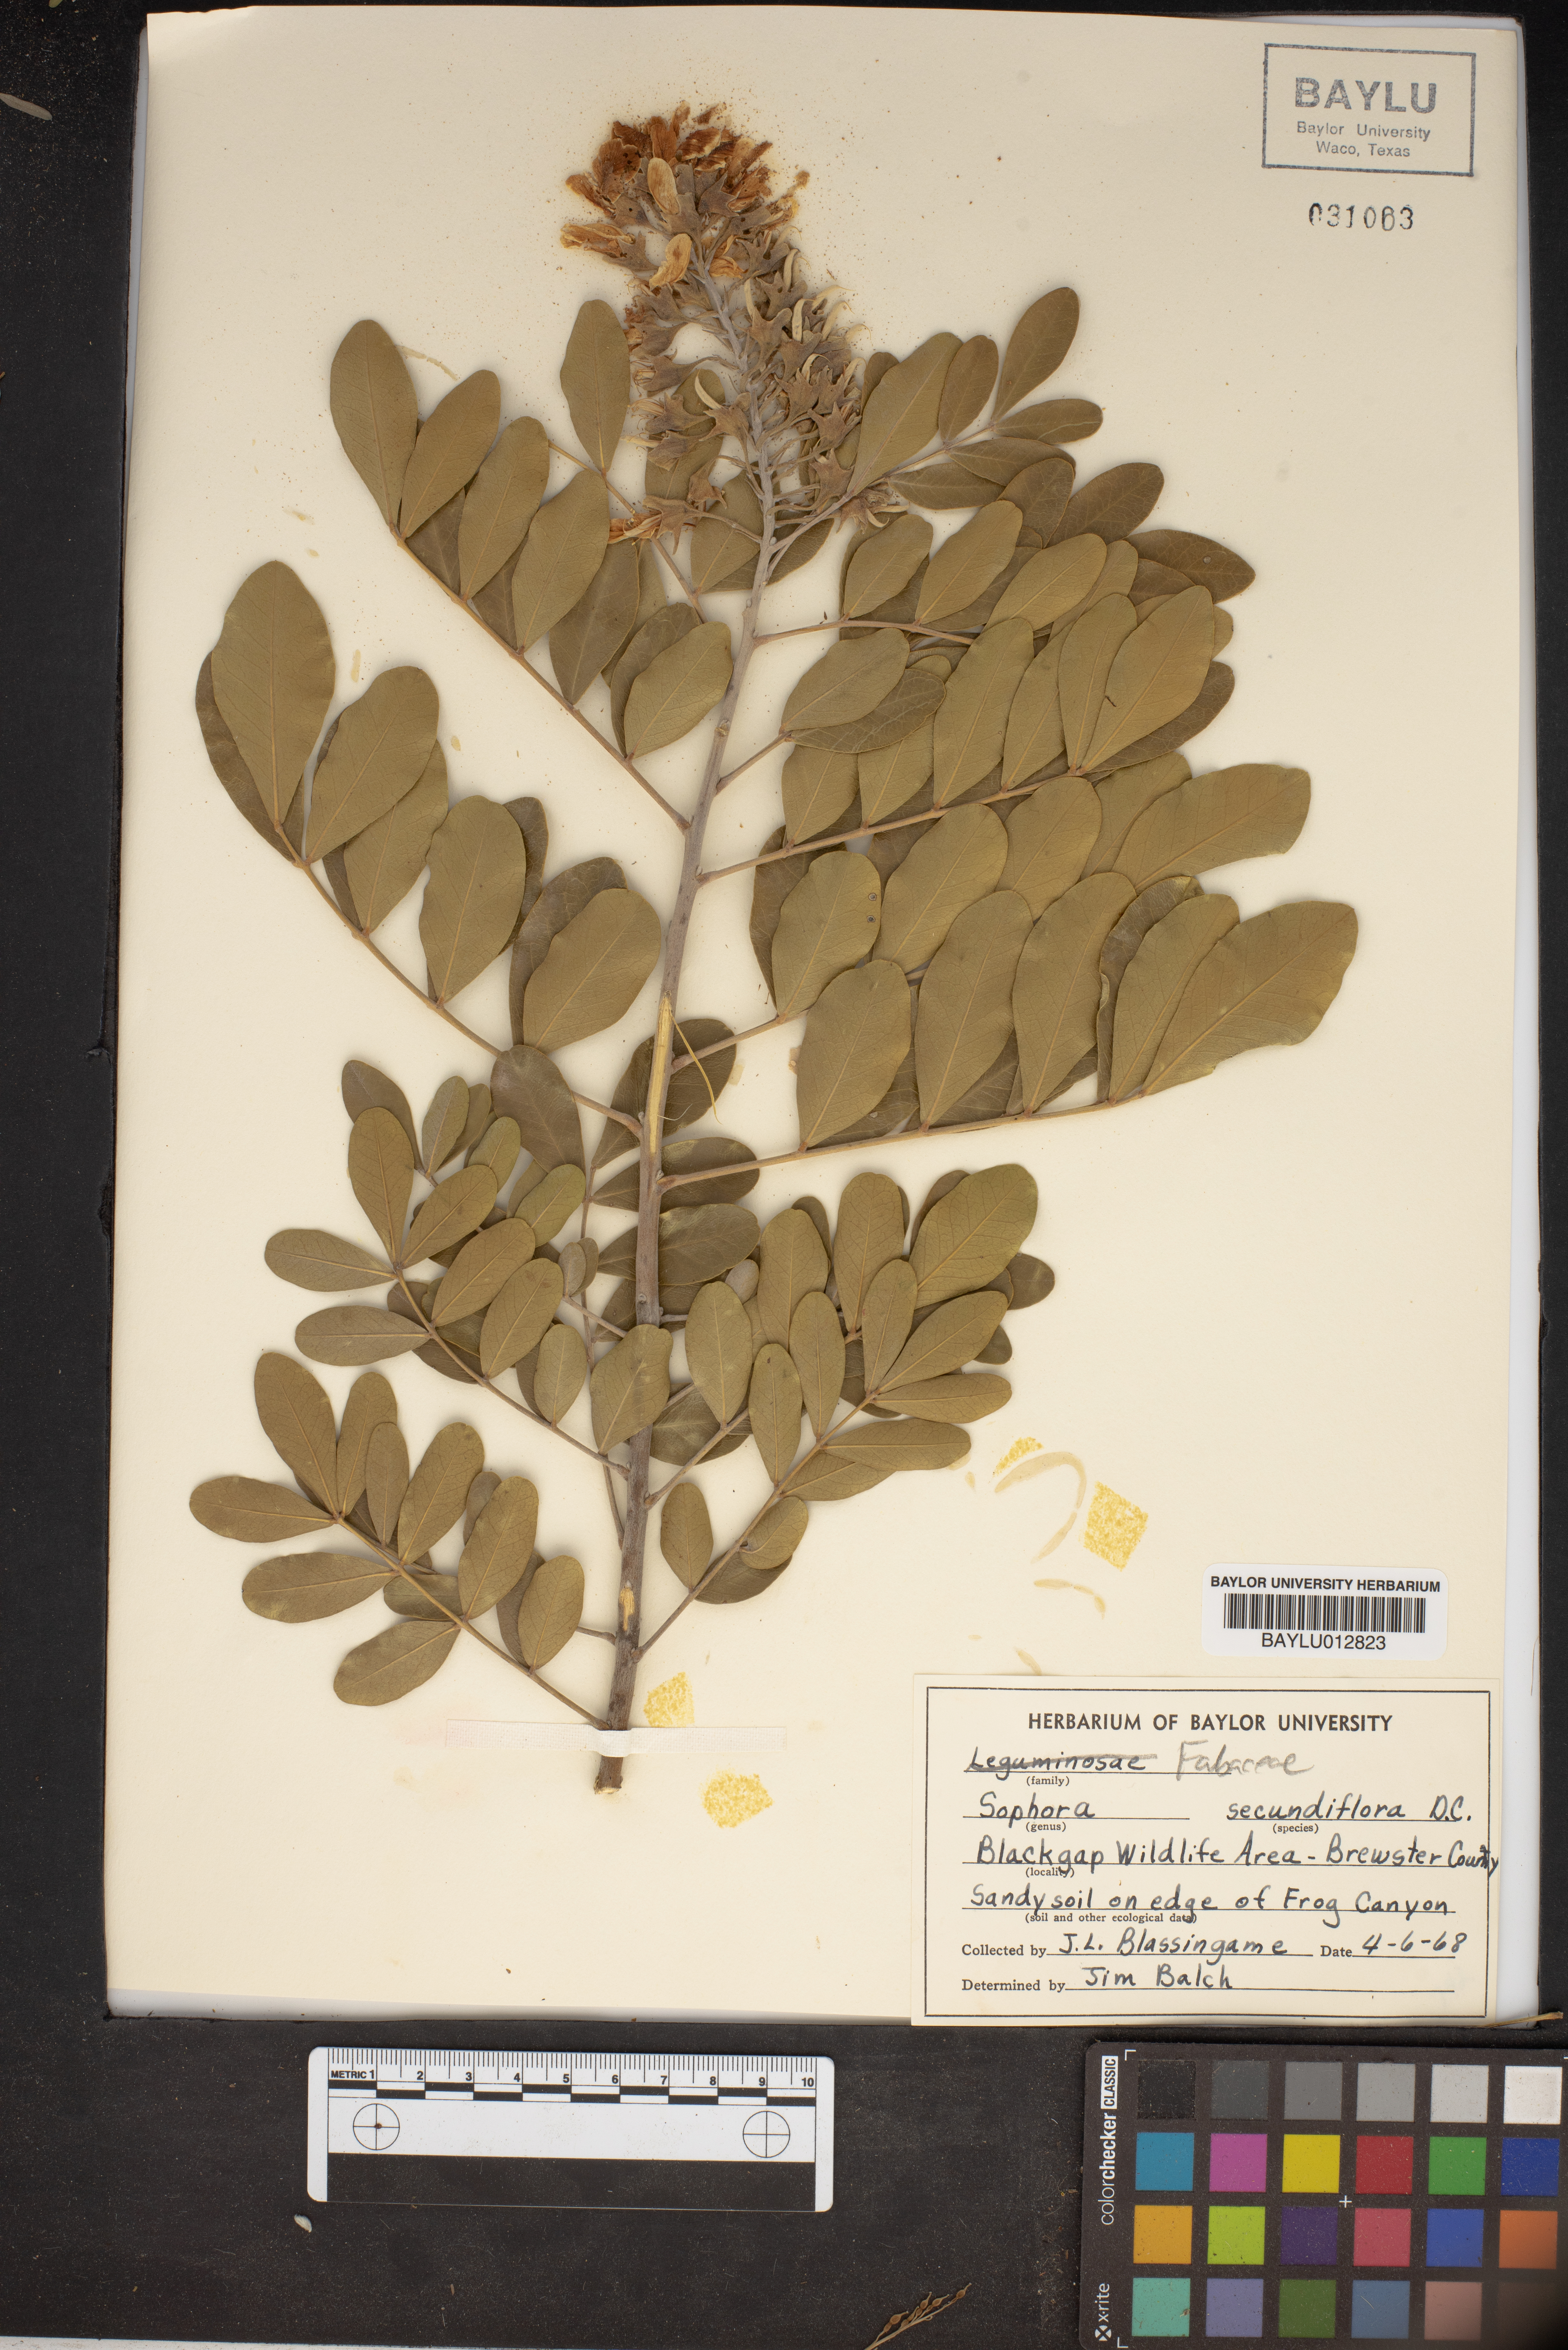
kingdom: Plantae
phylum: Tracheophyta
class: Magnoliopsida
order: Fabales
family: Fabaceae
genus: Dermatophyllum
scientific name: Dermatophyllum secundiflorum
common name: Texas-mountain-laurel
